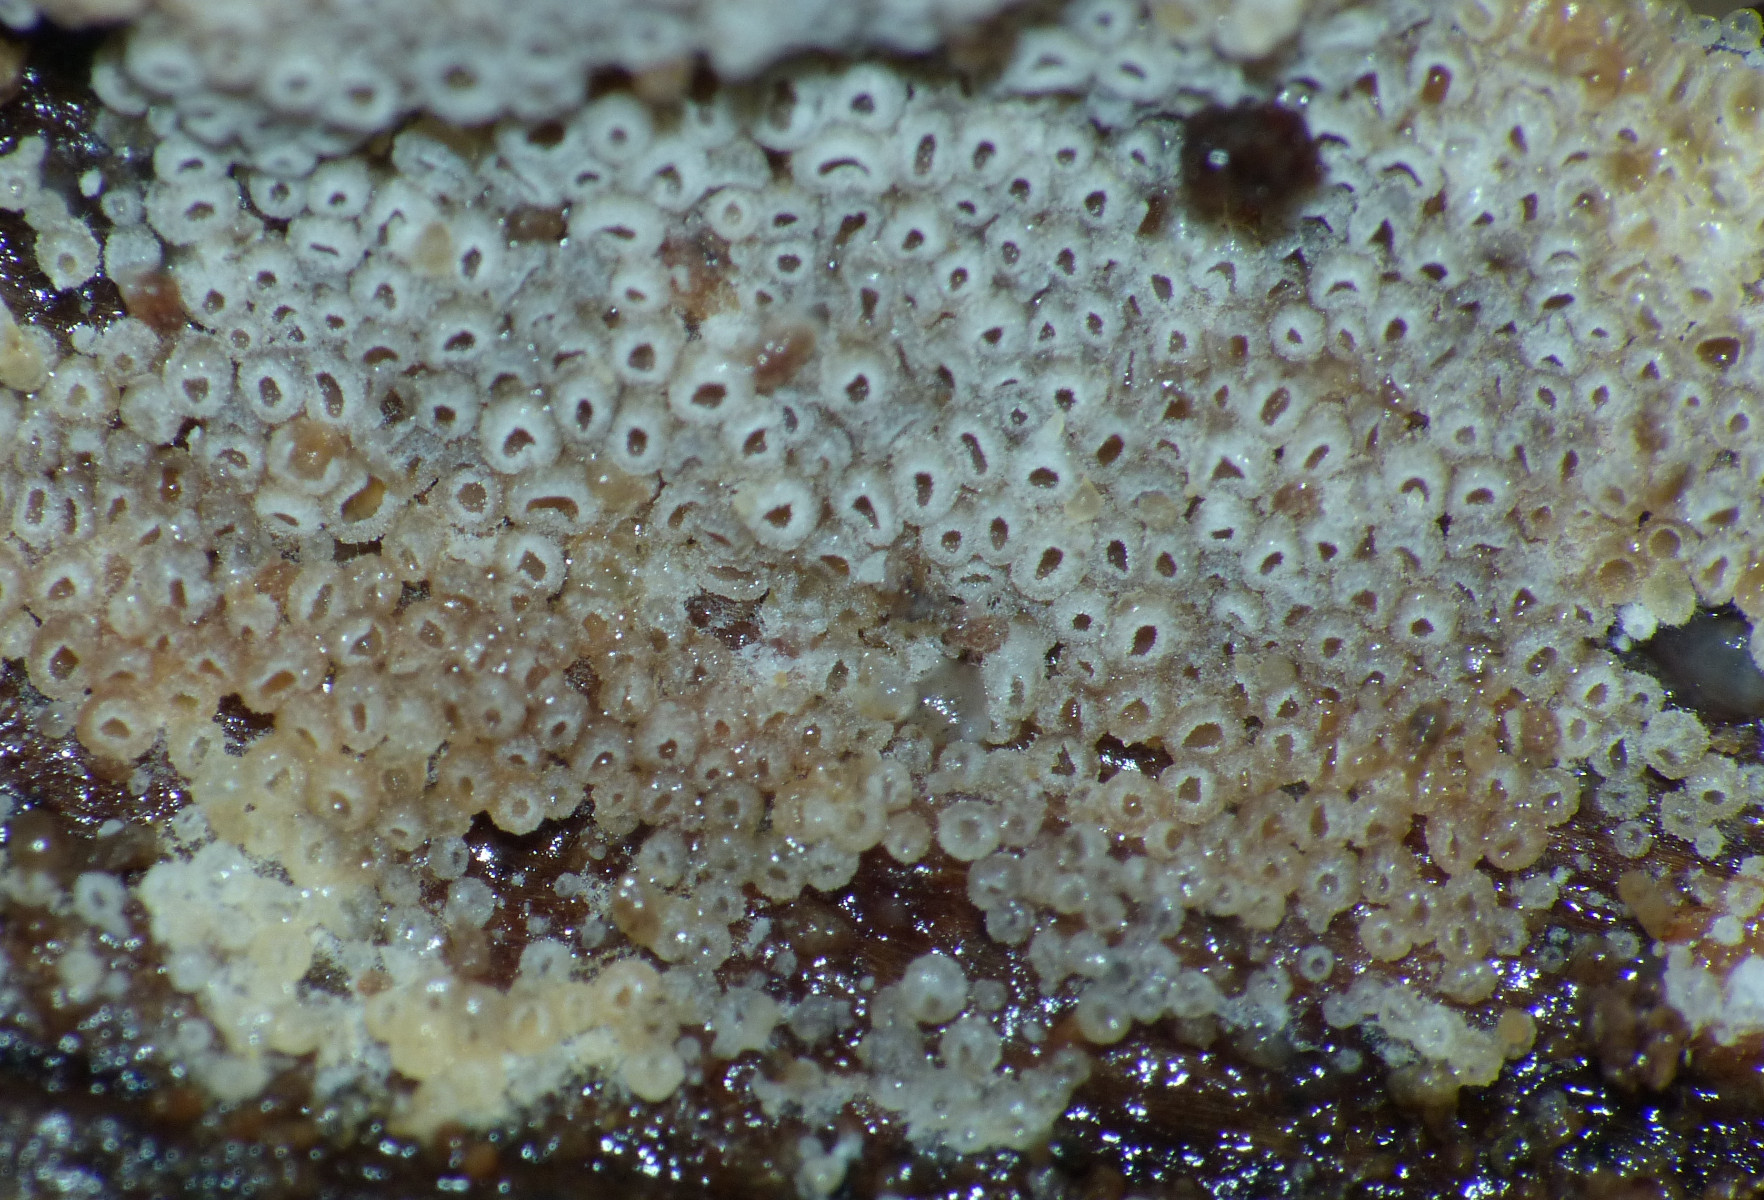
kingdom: Fungi
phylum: Basidiomycota
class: Agaricomycetes
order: Agaricales
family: Pleurotaceae
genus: Resupinatus
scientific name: Resupinatus poriaeformis
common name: tæpperør
